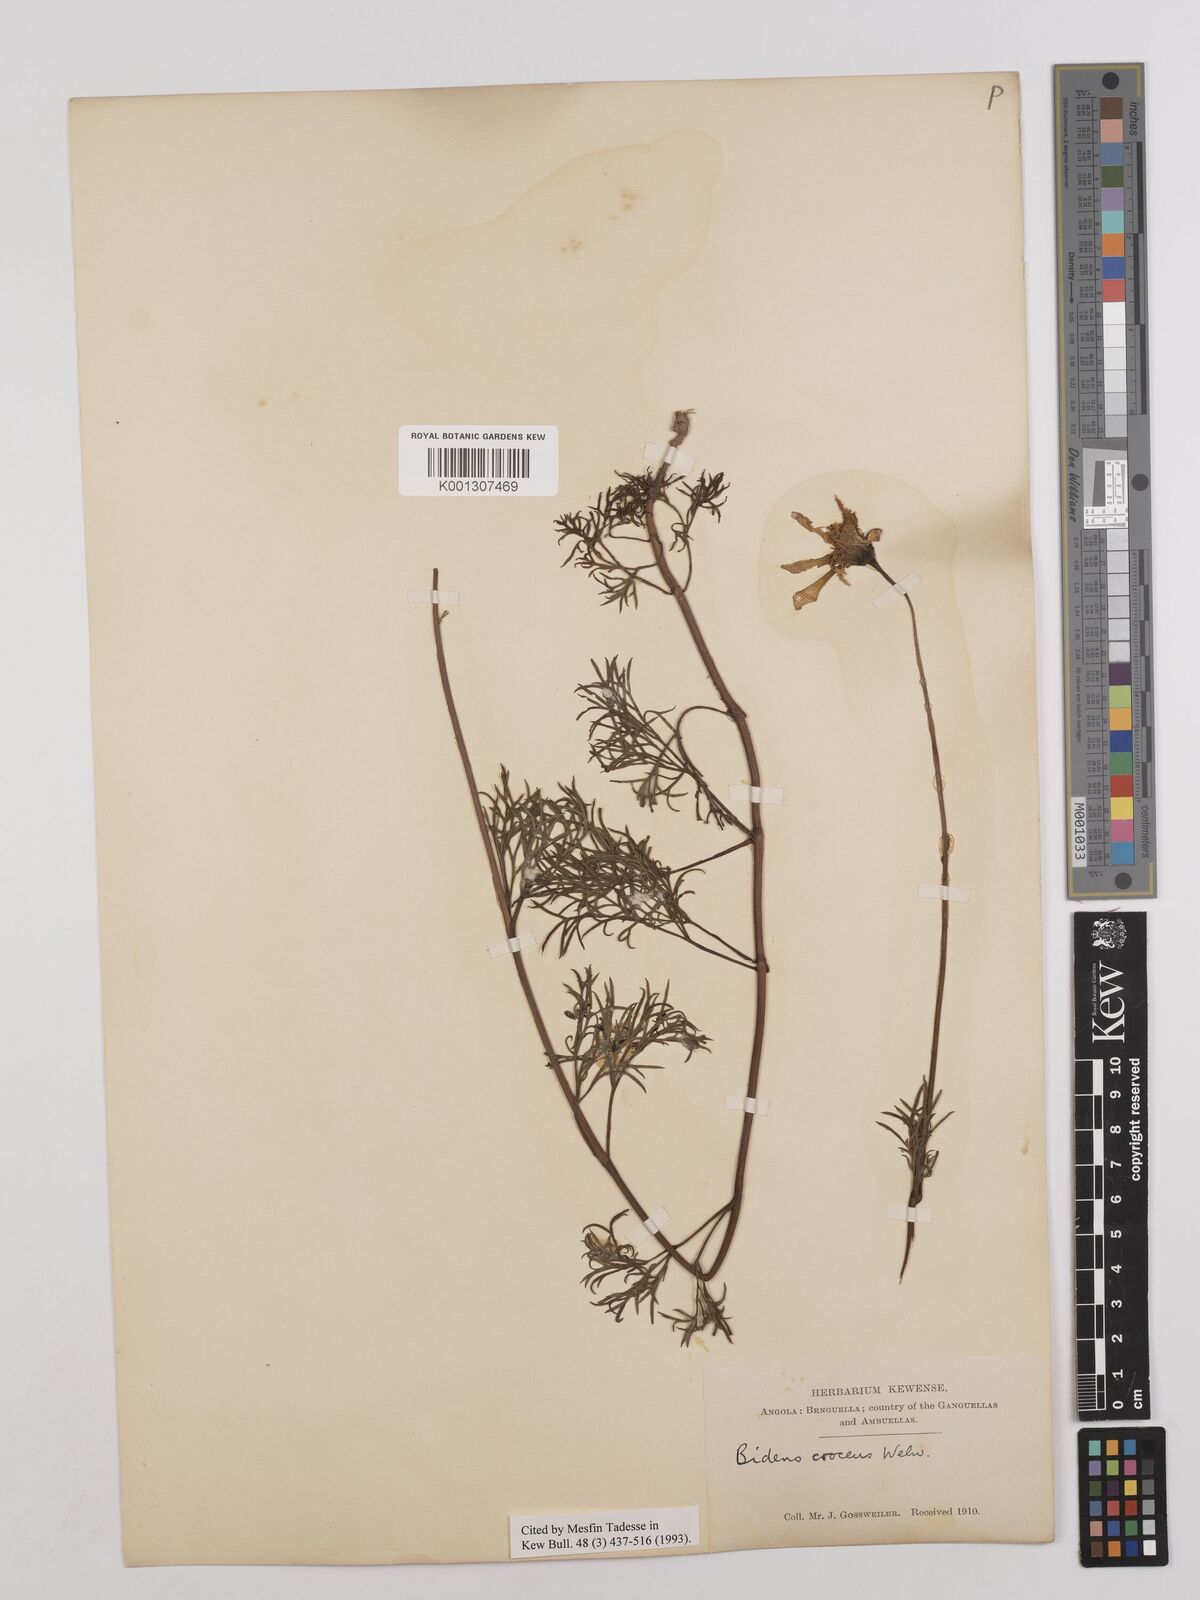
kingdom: Plantae
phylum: Tracheophyta
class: Magnoliopsida
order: Asterales
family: Asteraceae
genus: Bidens
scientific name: Bidens crocea
